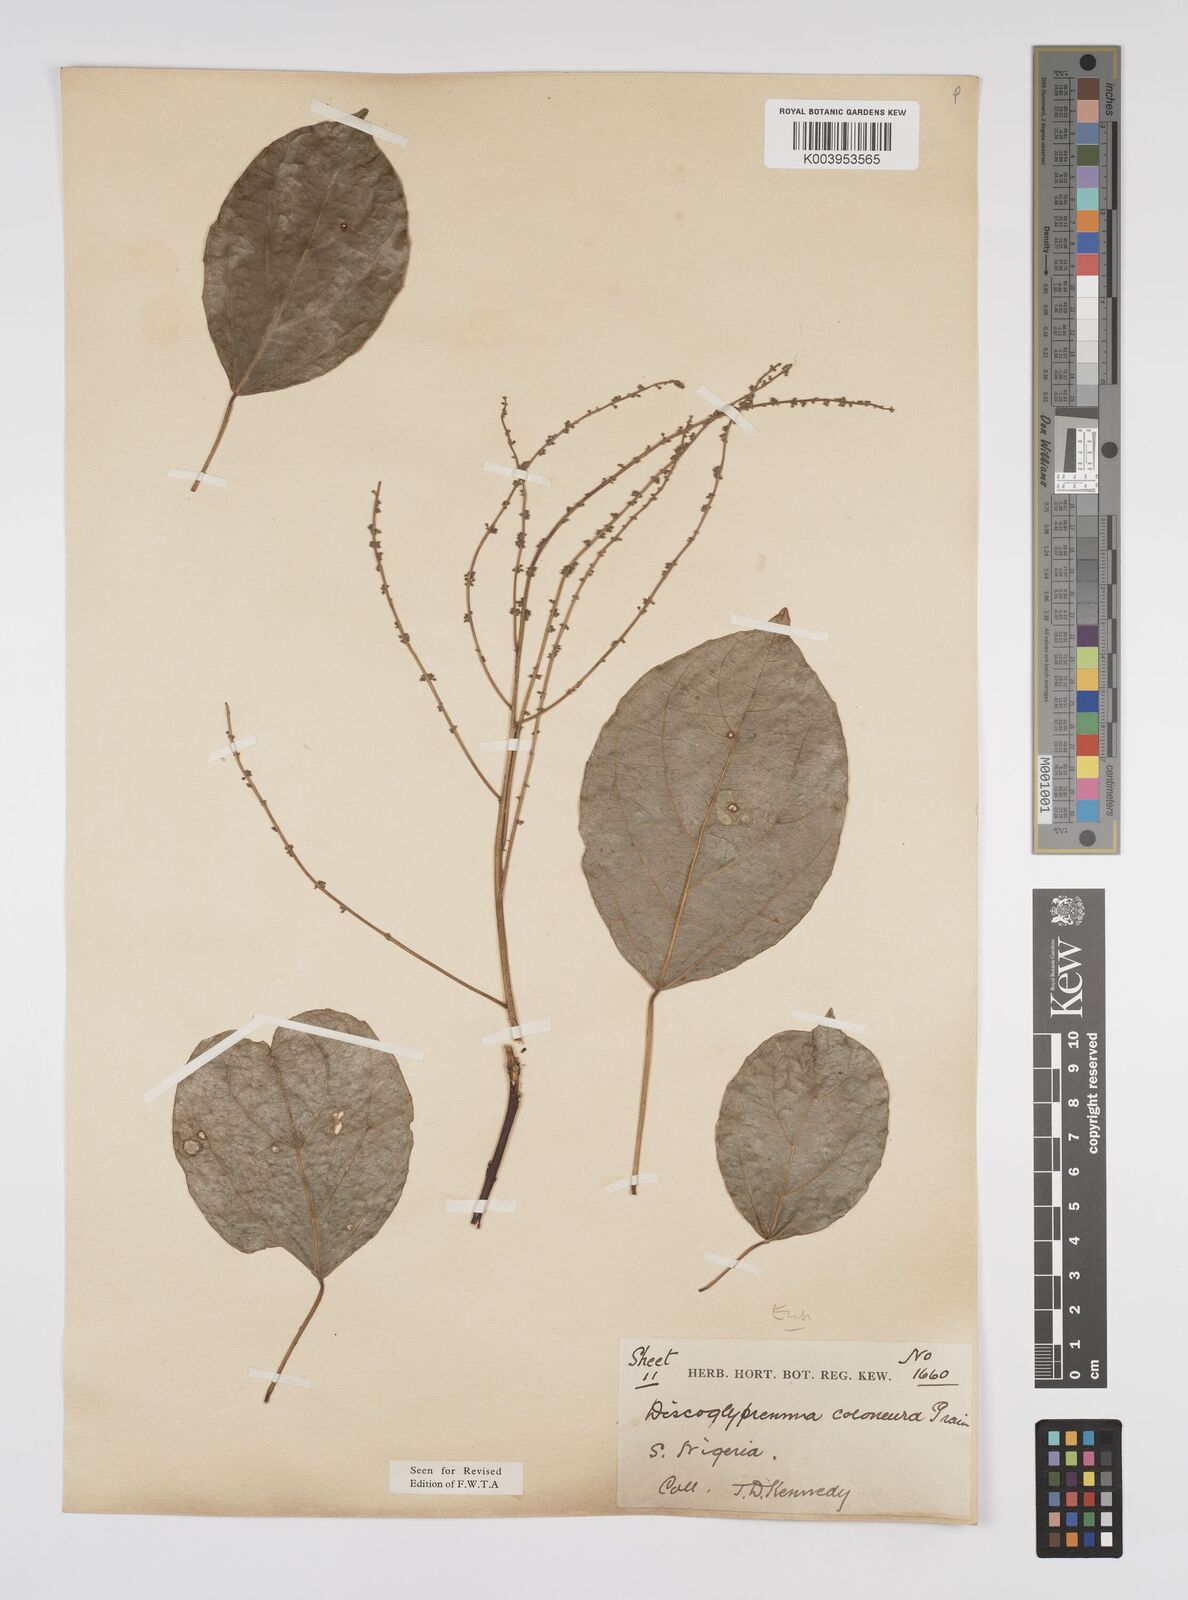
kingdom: Plantae
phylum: Tracheophyta
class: Magnoliopsida
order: Malpighiales
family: Euphorbiaceae
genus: Discoglypremna
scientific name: Discoglypremna caloneura
